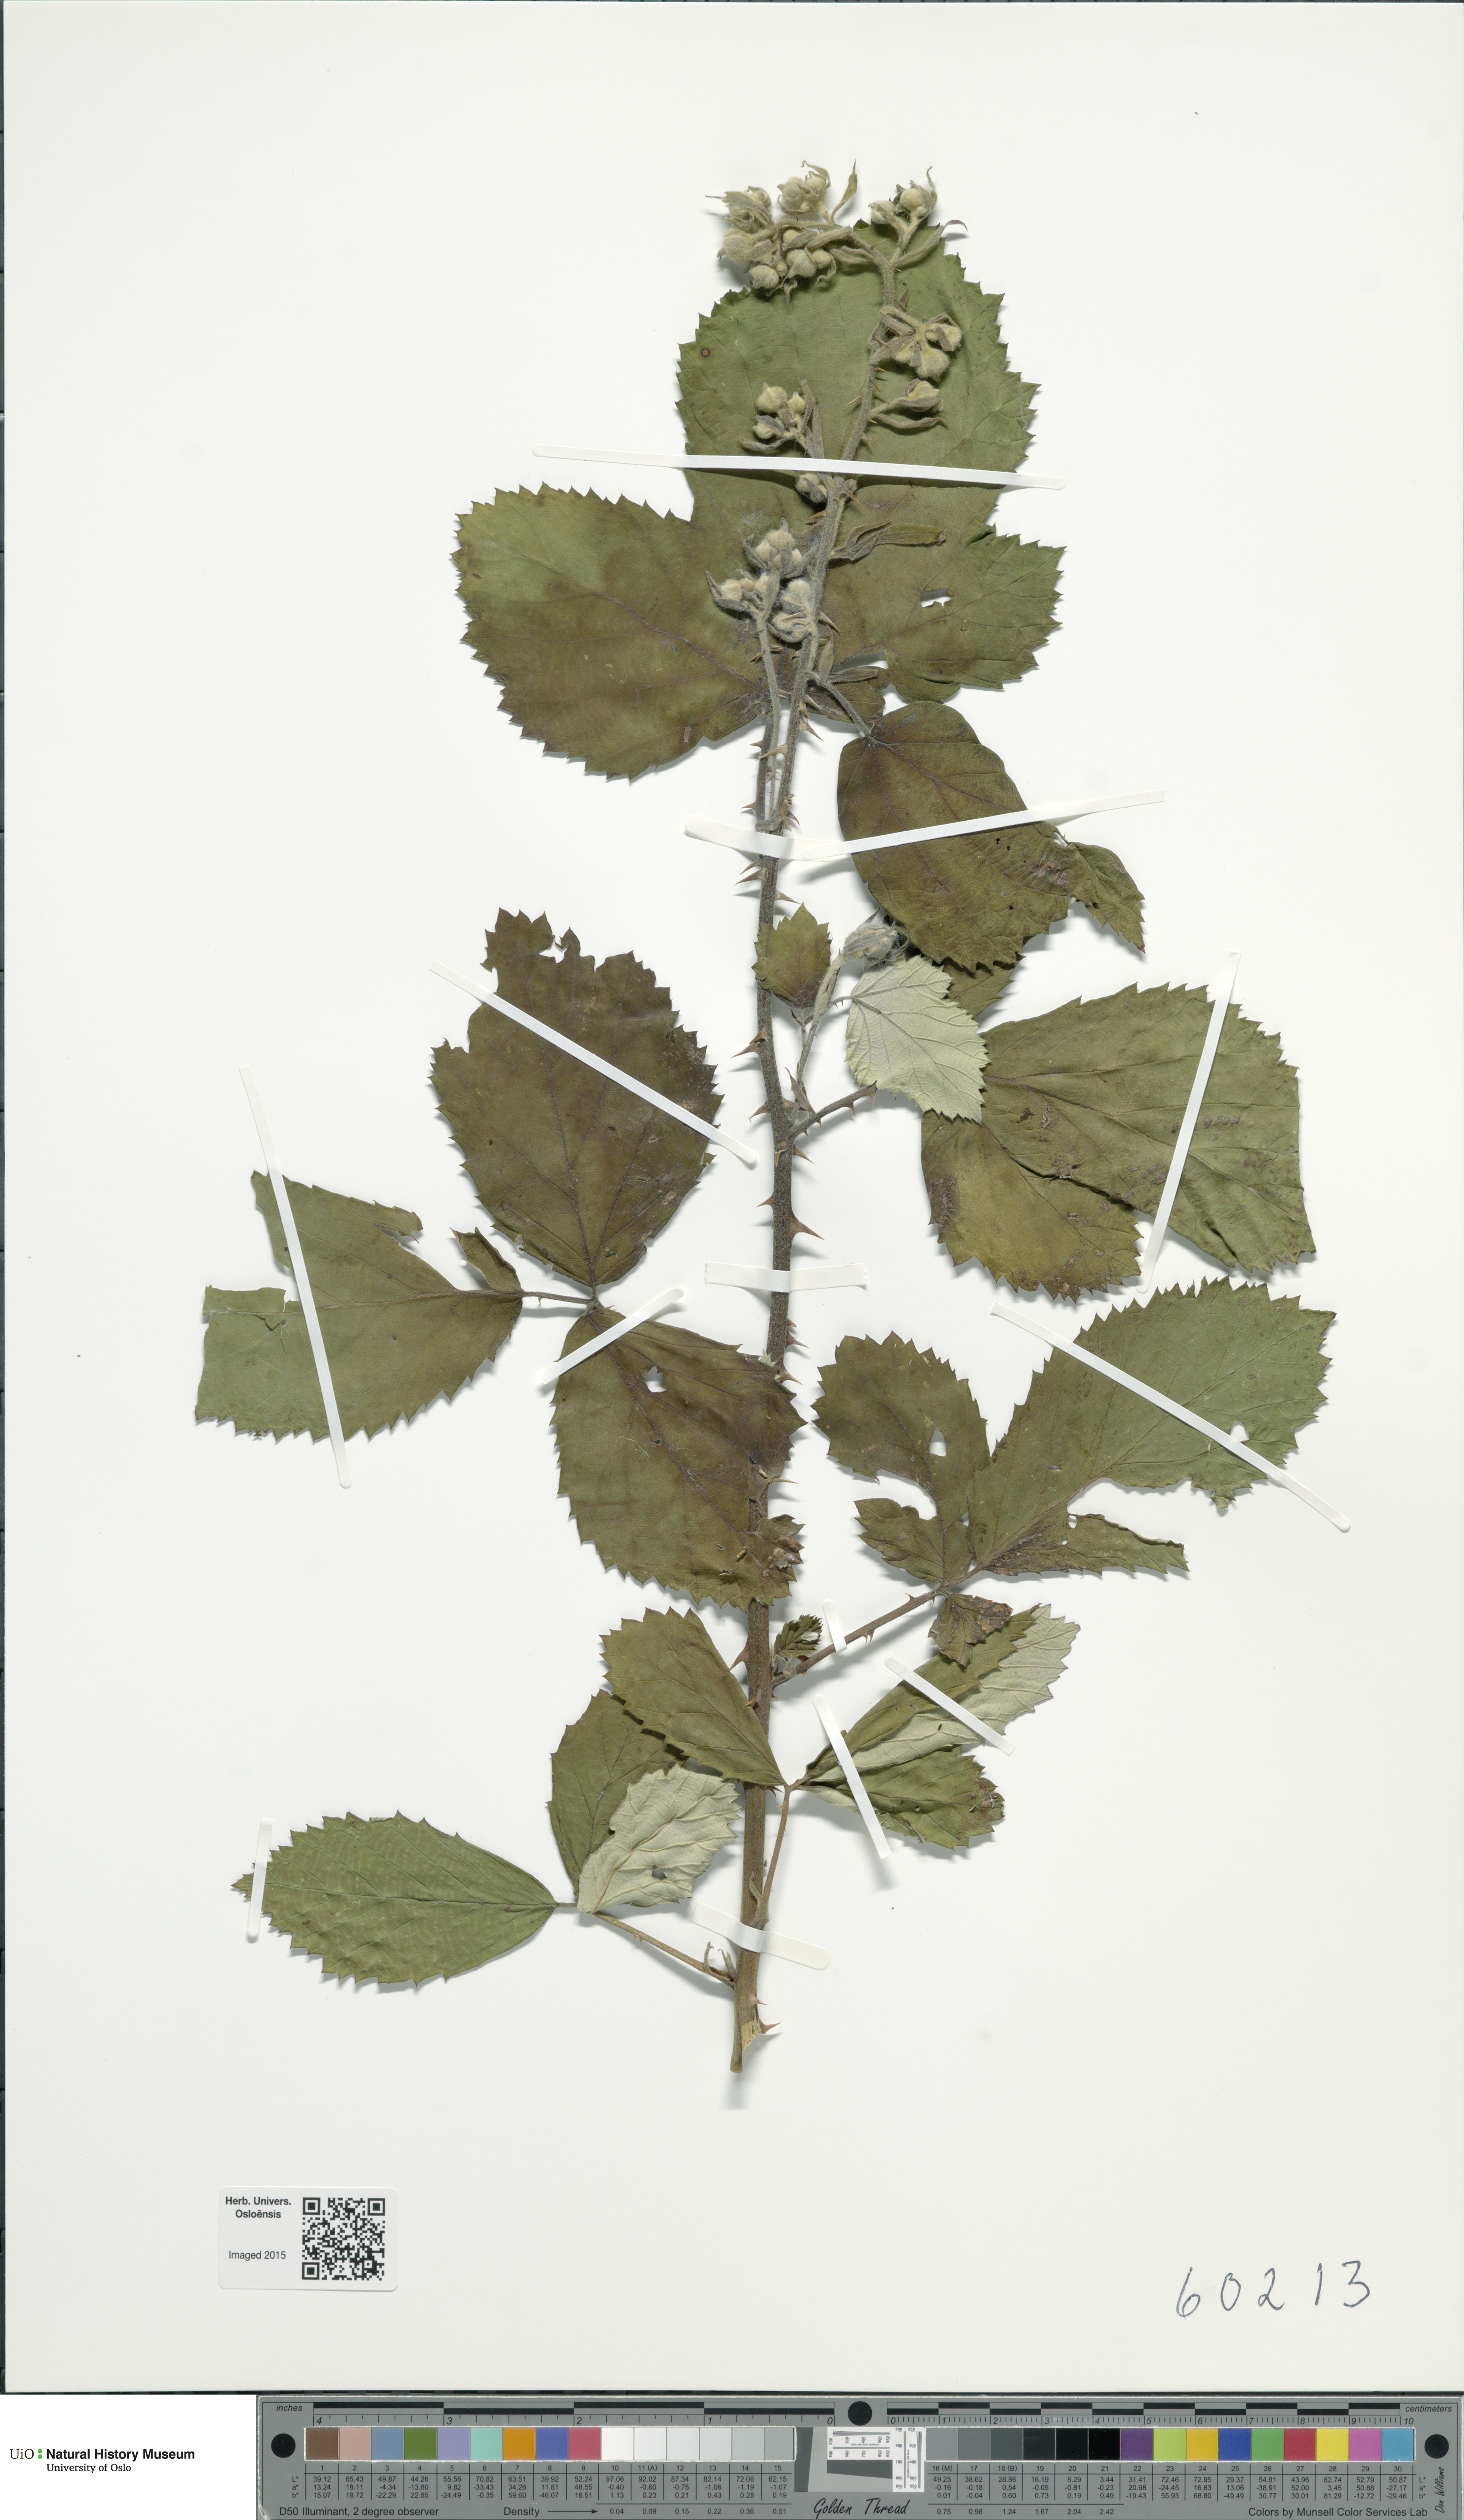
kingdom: Plantae
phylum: Tracheophyta
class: Magnoliopsida
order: Rosales
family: Rosaceae
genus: Rubus
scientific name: Rubus armeniacus
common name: Himalayan blackberry
